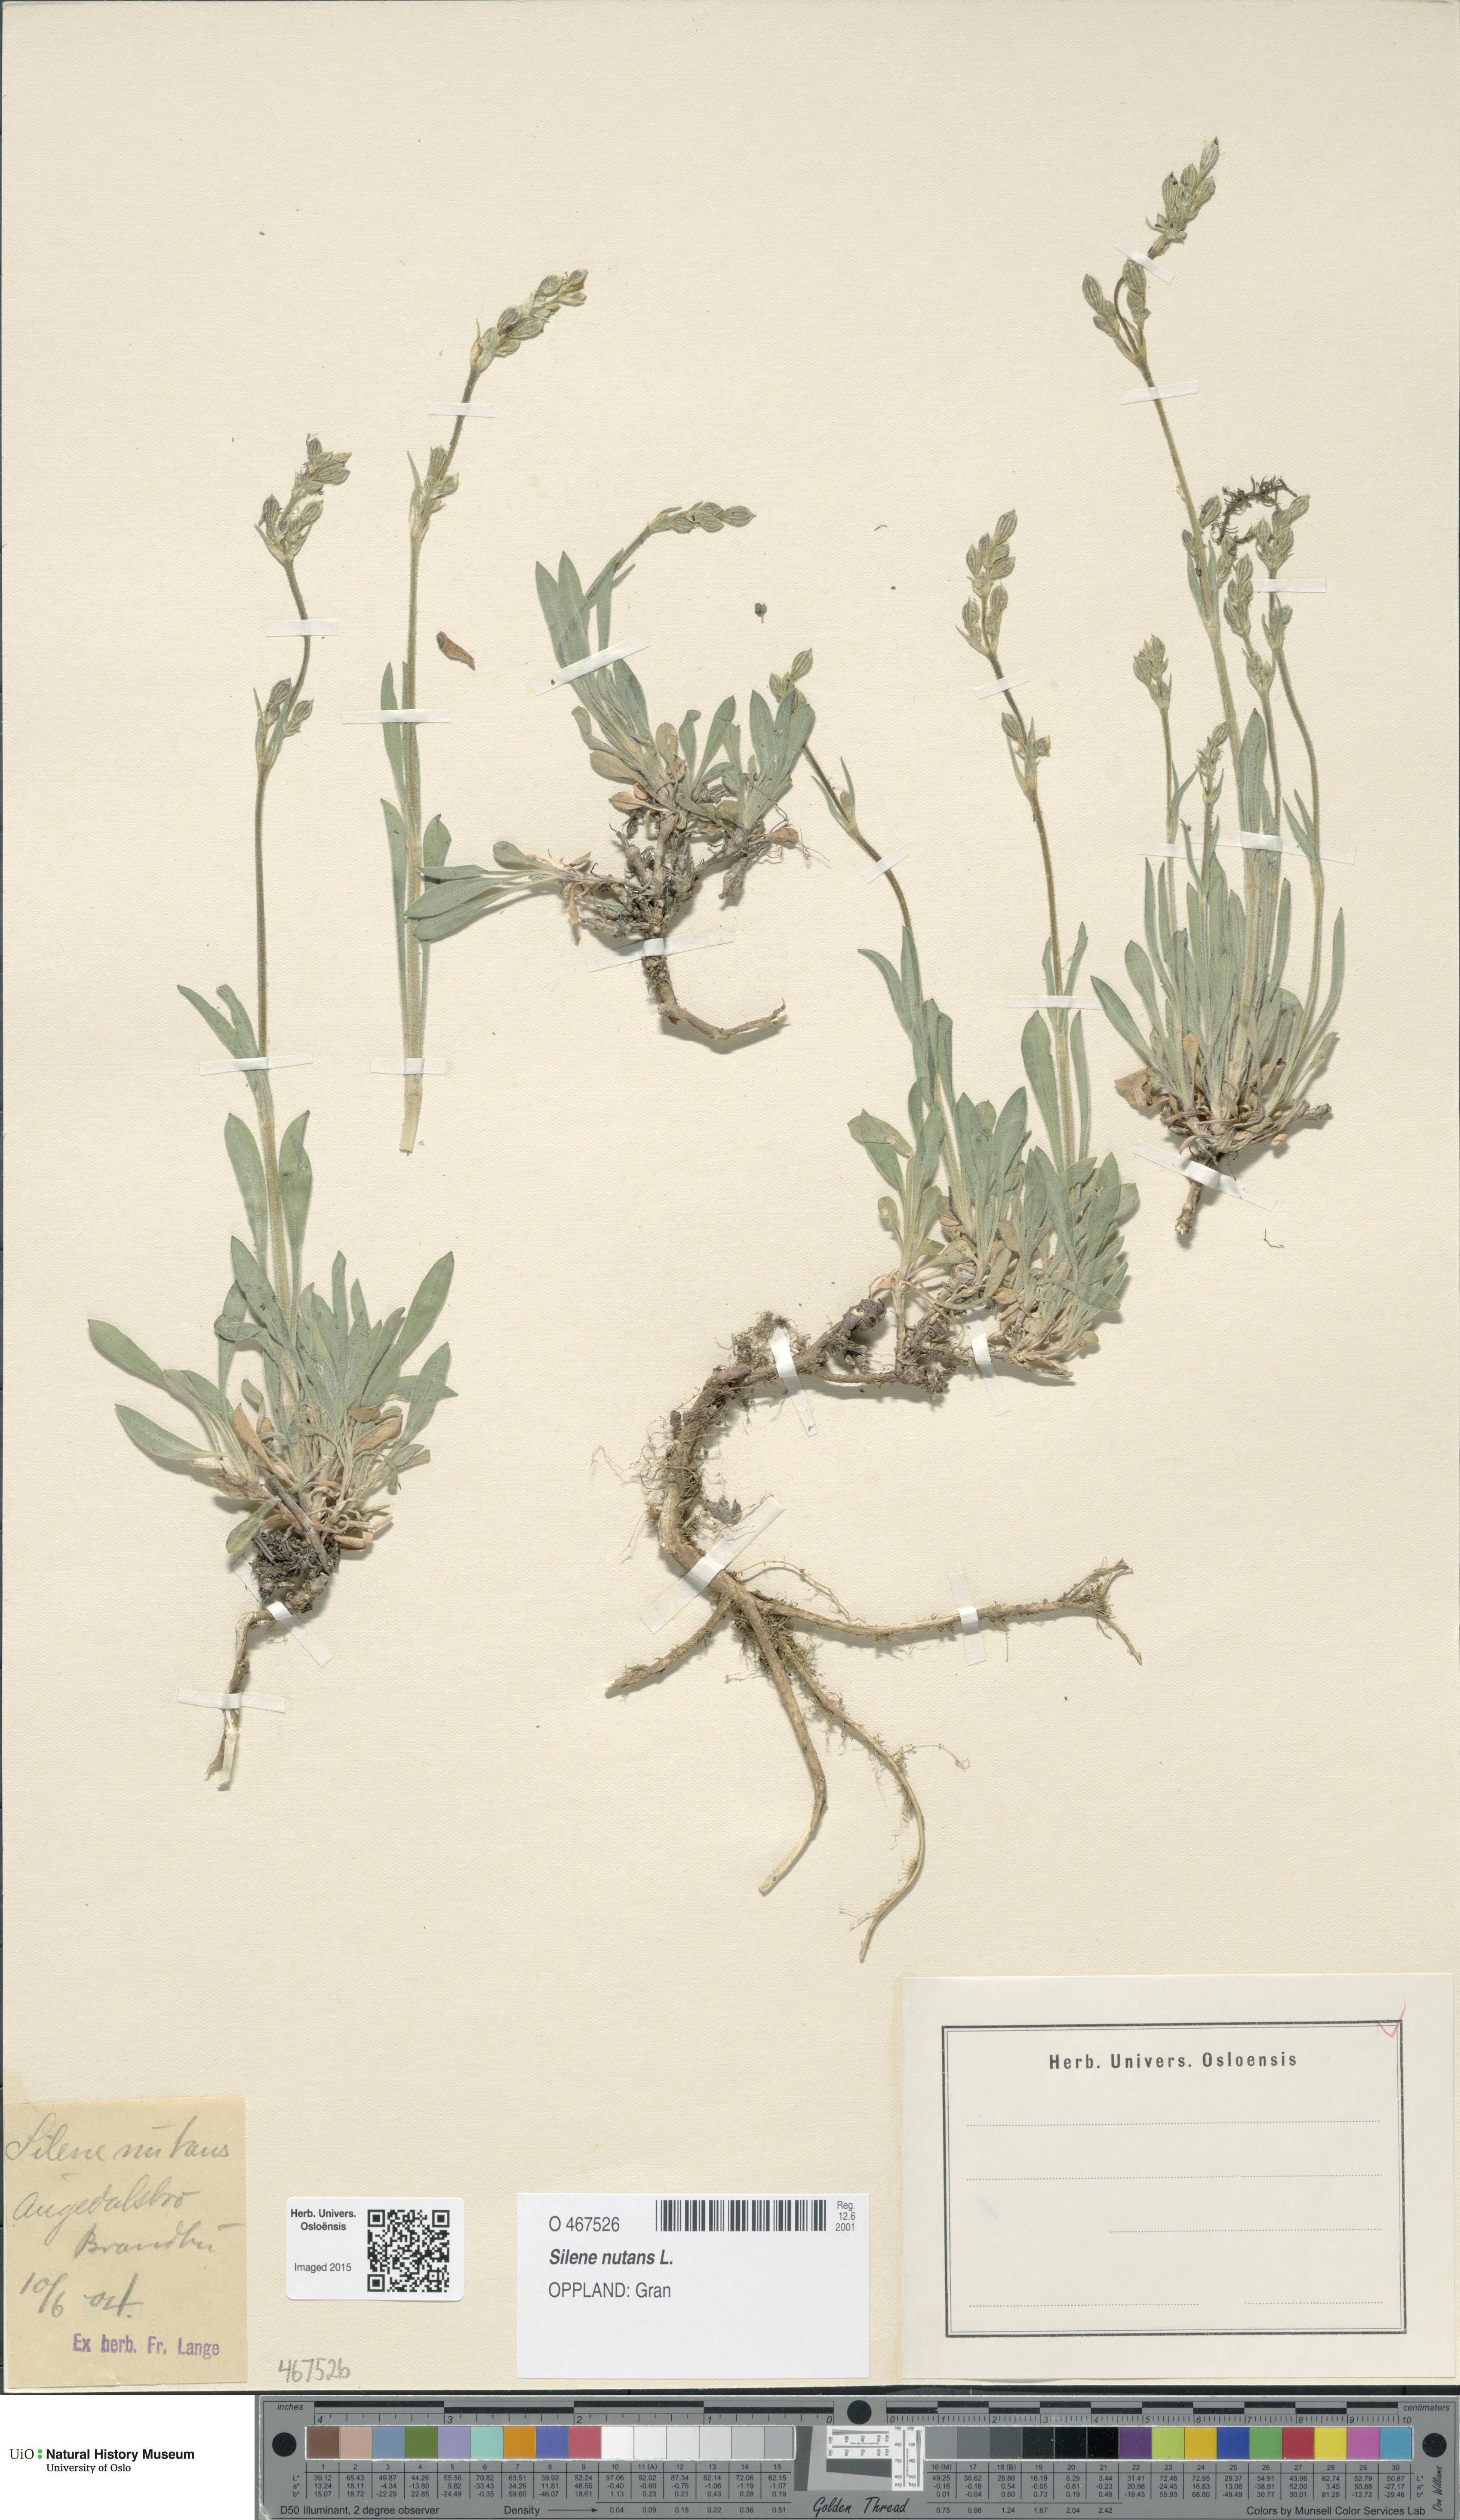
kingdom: Plantae
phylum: Tracheophyta
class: Magnoliopsida
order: Caryophyllales
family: Caryophyllaceae
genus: Silene
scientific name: Silene nutans
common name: Nottingham catchfly
